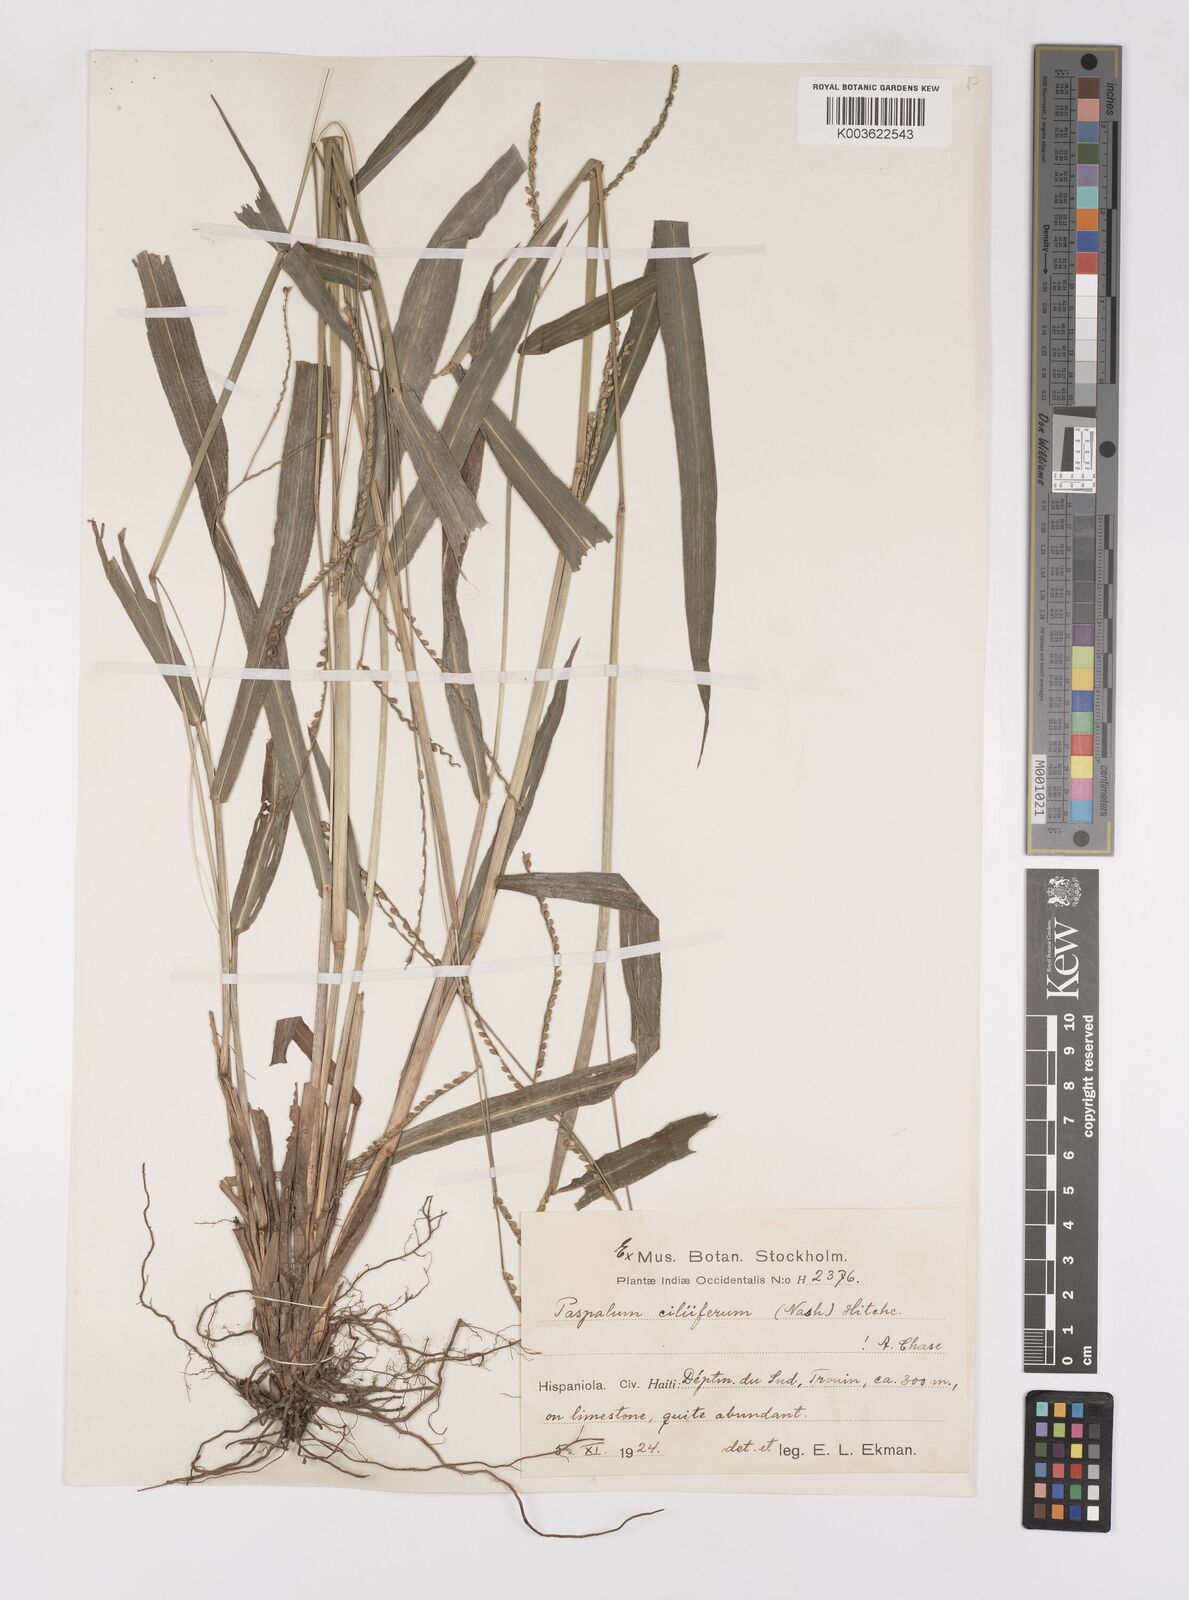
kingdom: Plantae
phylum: Tracheophyta
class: Liliopsida
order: Poales
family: Poaceae
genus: Paspalum
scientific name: Paspalum langei
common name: Rusty-seed paspalum
